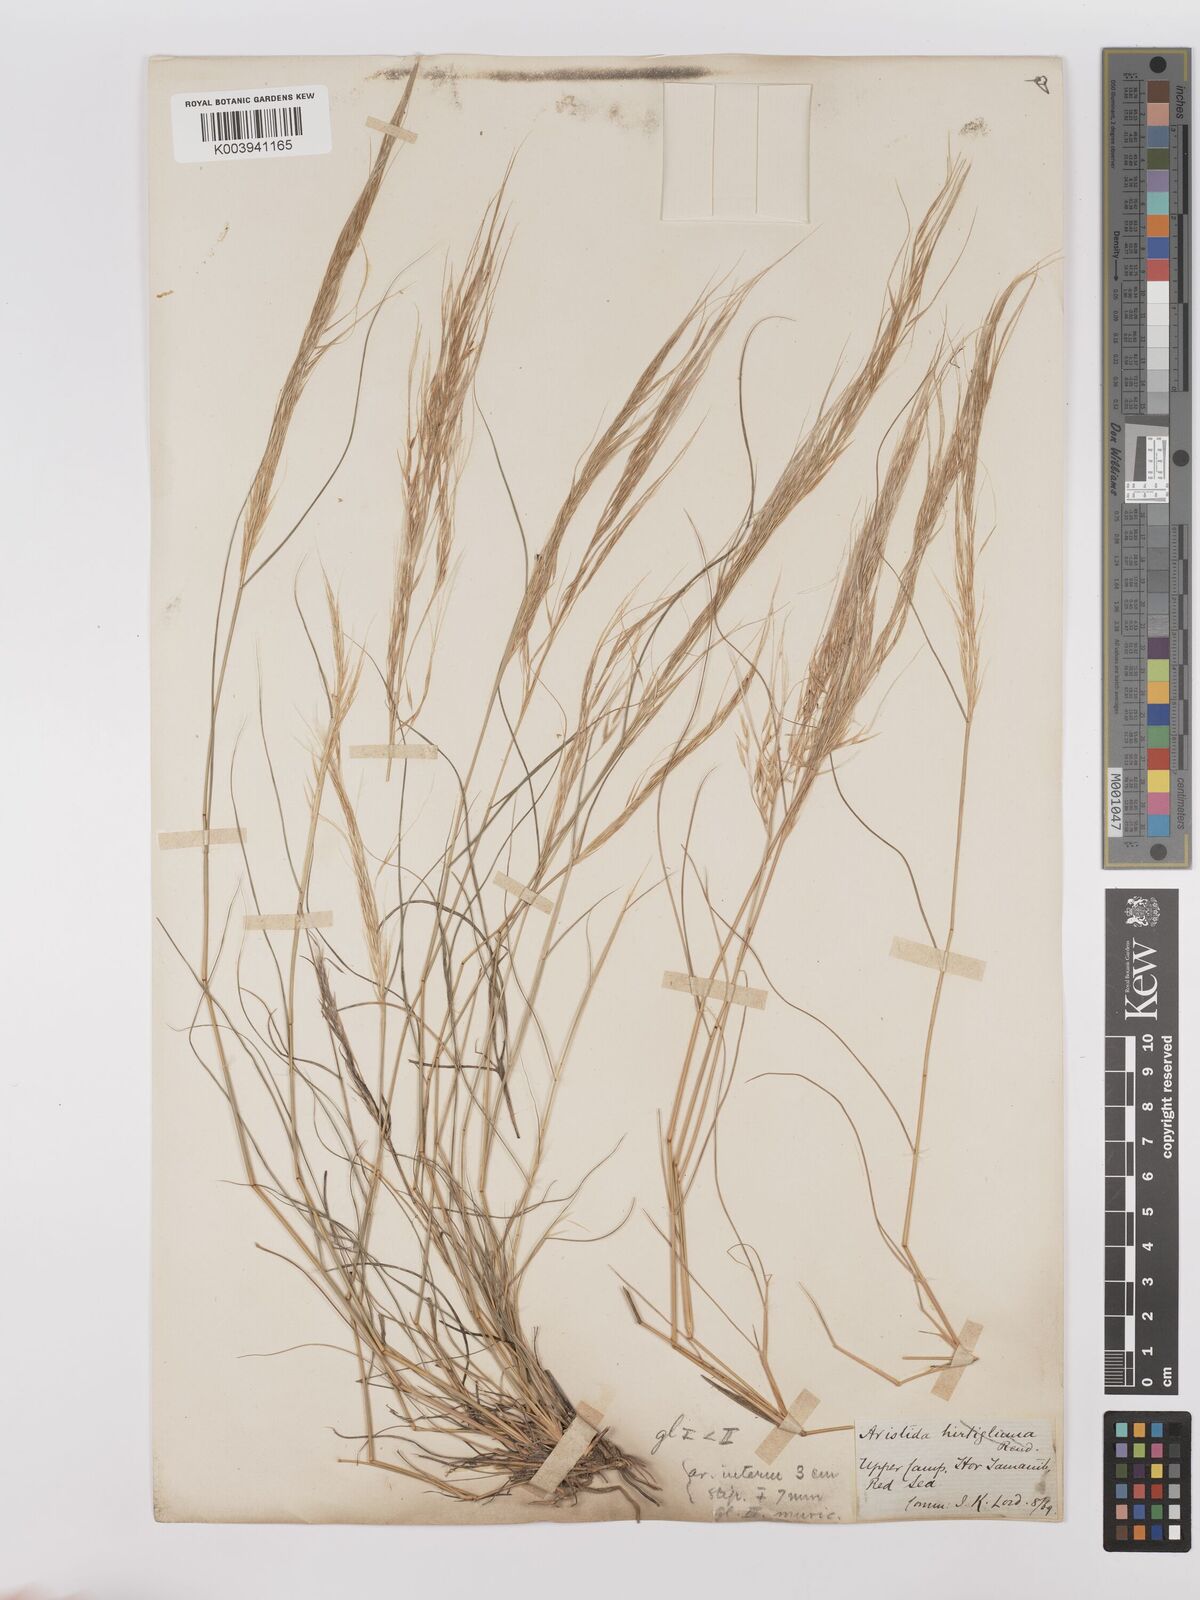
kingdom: Plantae
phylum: Tracheophyta
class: Liliopsida
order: Poales
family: Poaceae
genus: Stipagrostis
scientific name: Stipagrostis hirtigluma
